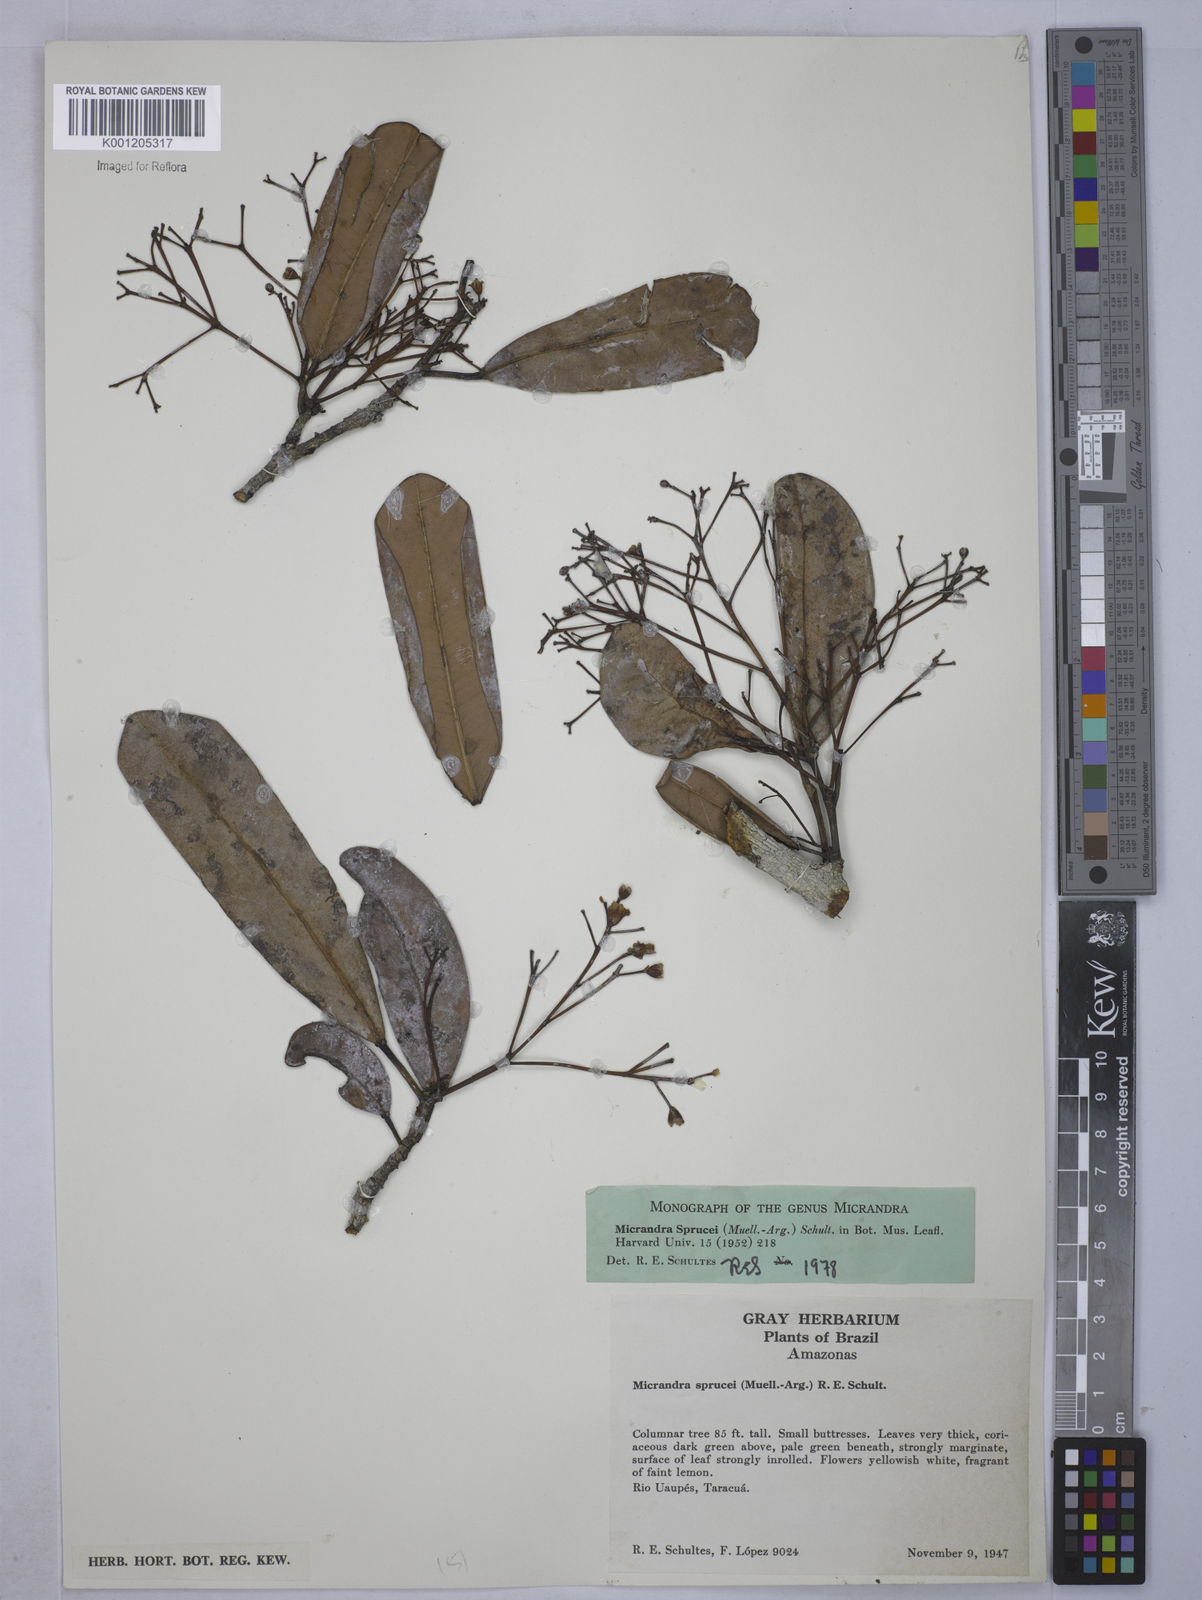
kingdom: Plantae
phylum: Tracheophyta
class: Magnoliopsida
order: Malpighiales
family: Euphorbiaceae
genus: Micrandra
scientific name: Micrandra spruceana
